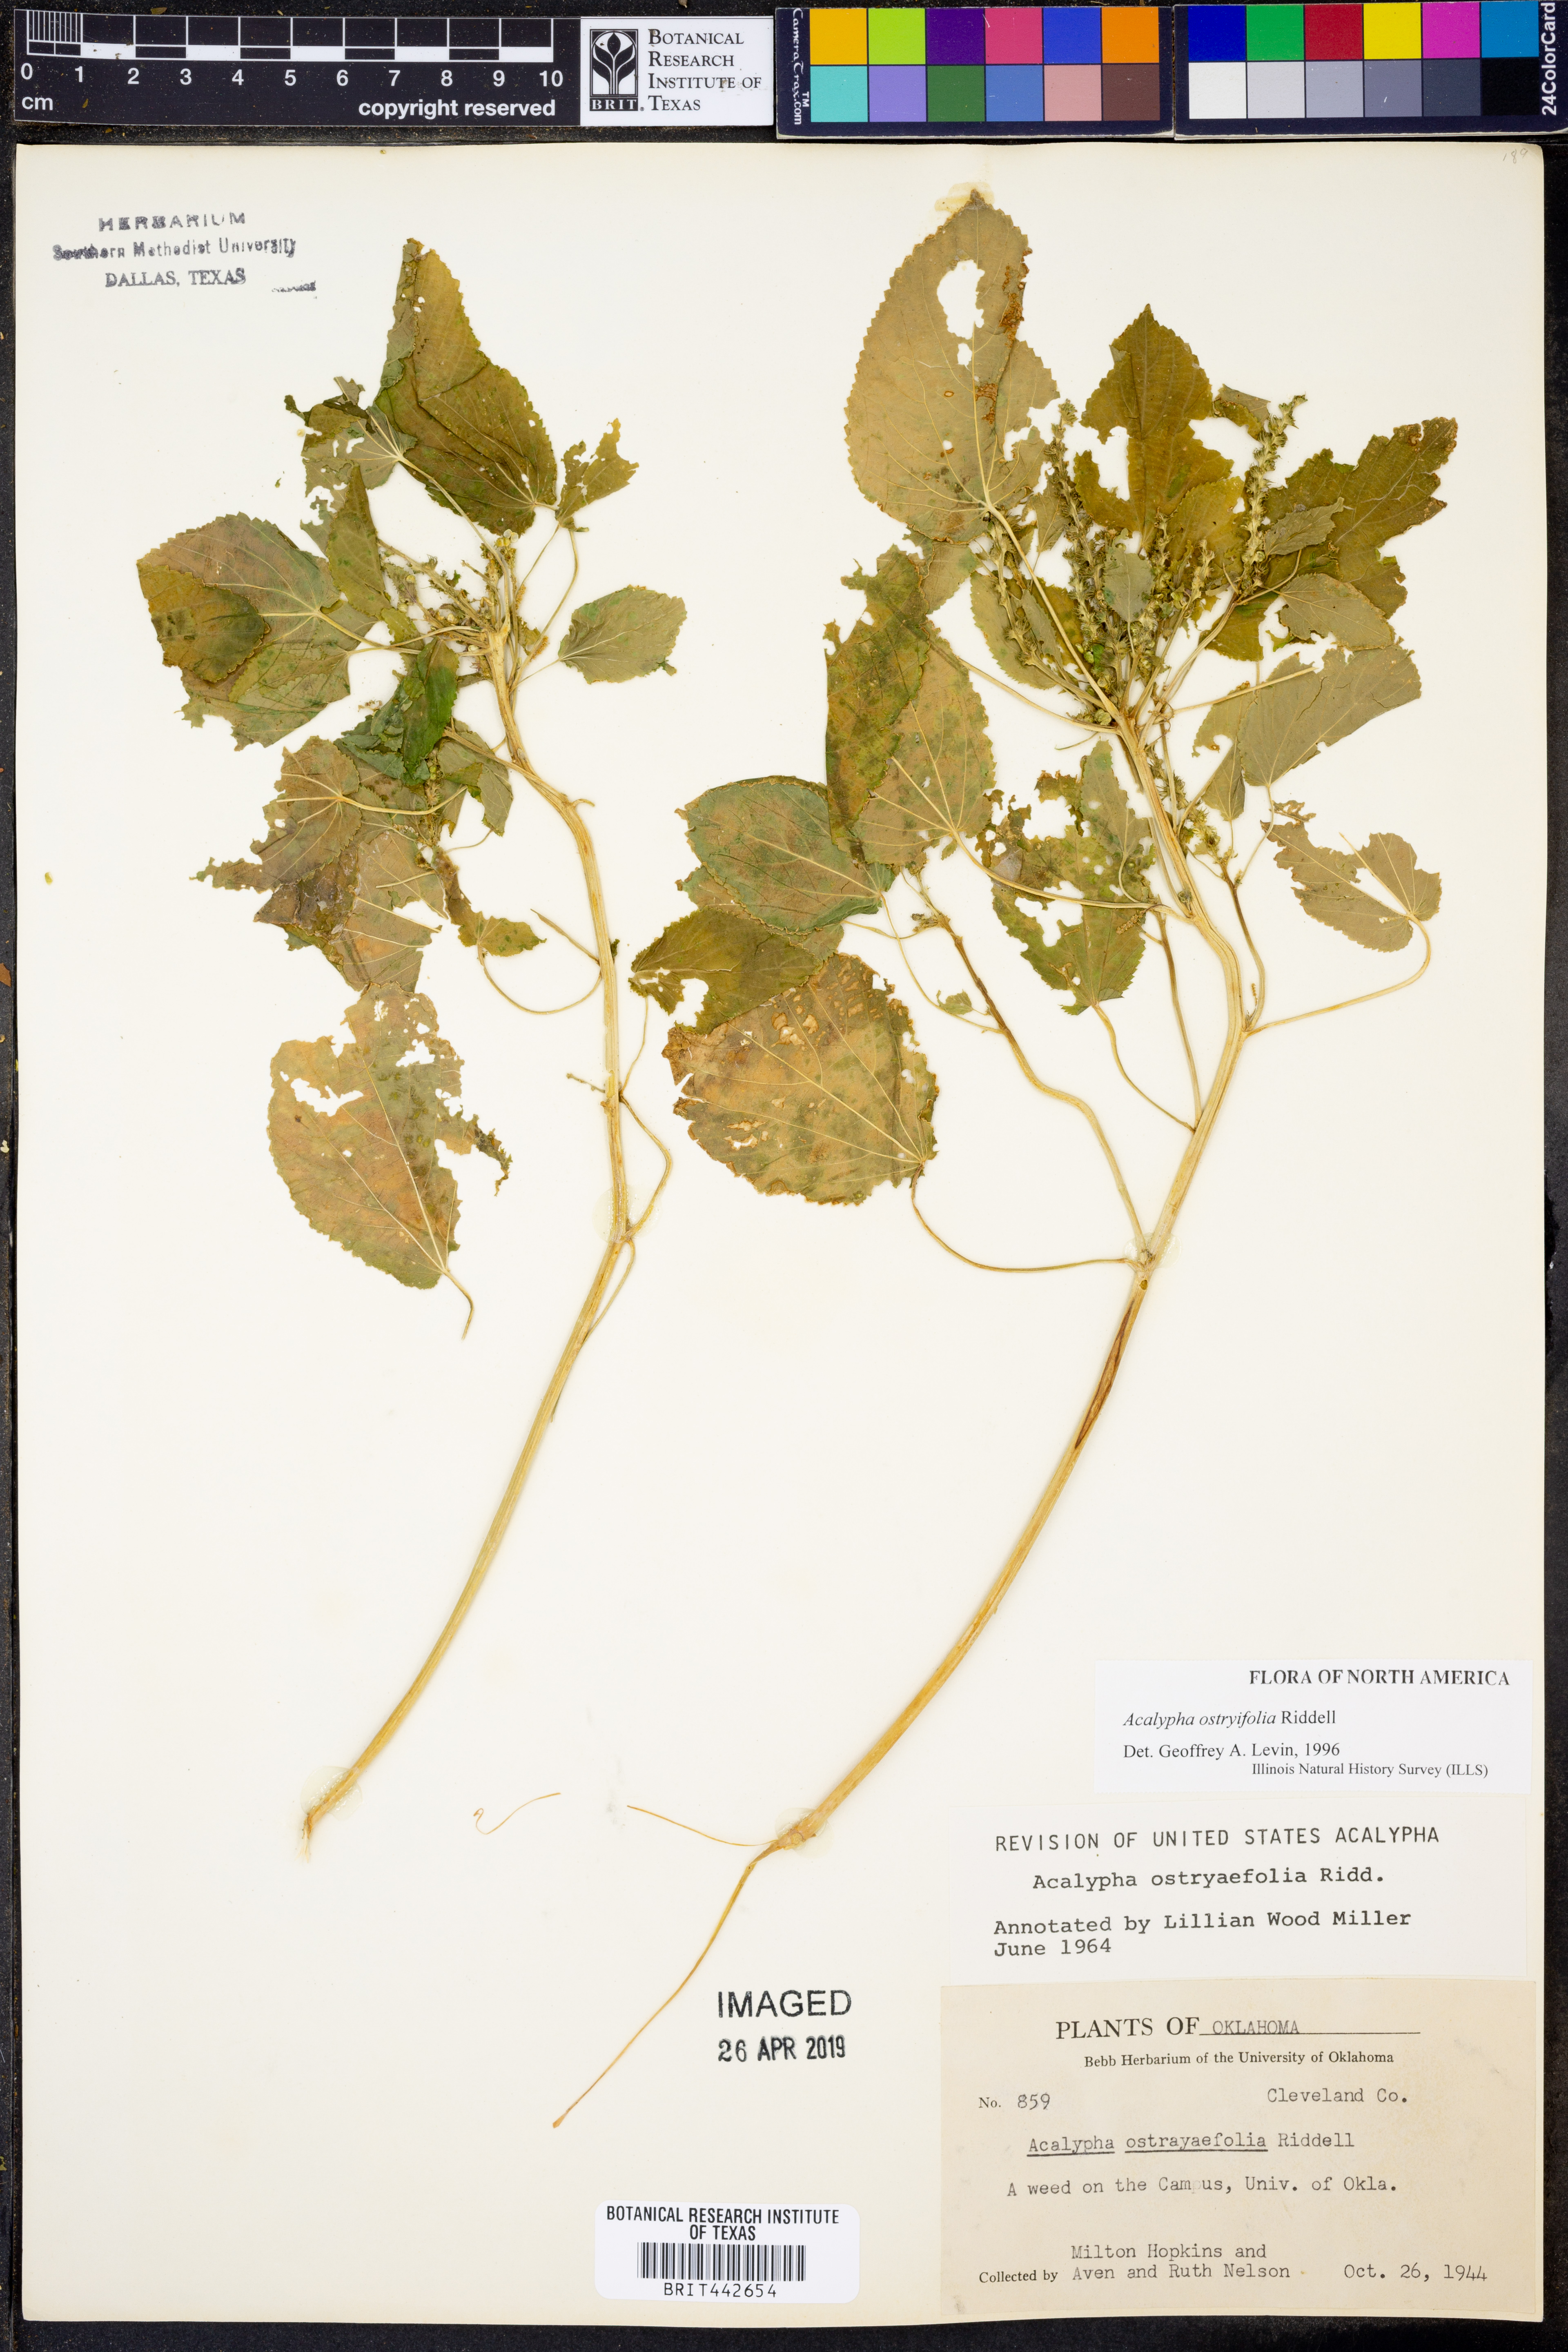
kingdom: Plantae
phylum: Tracheophyta
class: Magnoliopsida
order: Malpighiales
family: Euphorbiaceae
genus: Acalypha
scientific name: Acalypha persimilis
